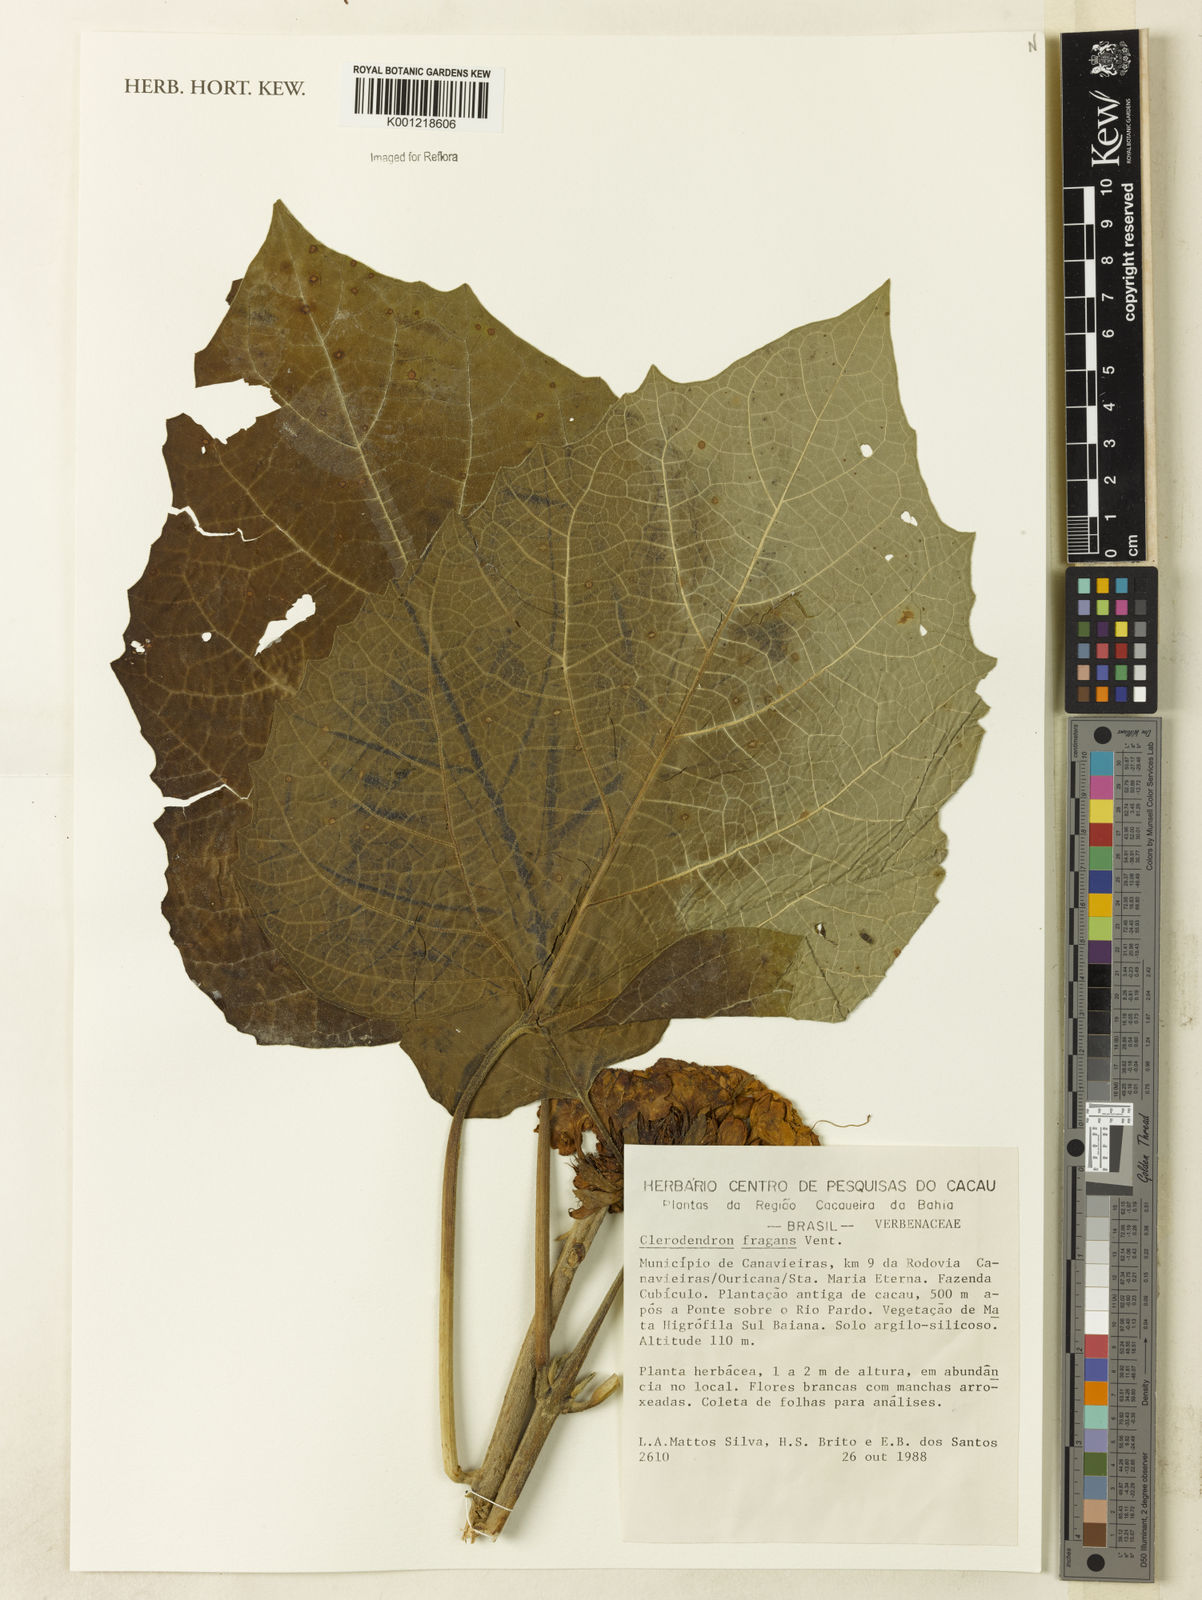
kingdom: Plantae
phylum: Tracheophyta
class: Magnoliopsida
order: Lamiales
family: Lamiaceae
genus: Clerodendrum
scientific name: Clerodendrum chinense
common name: Stickbush
